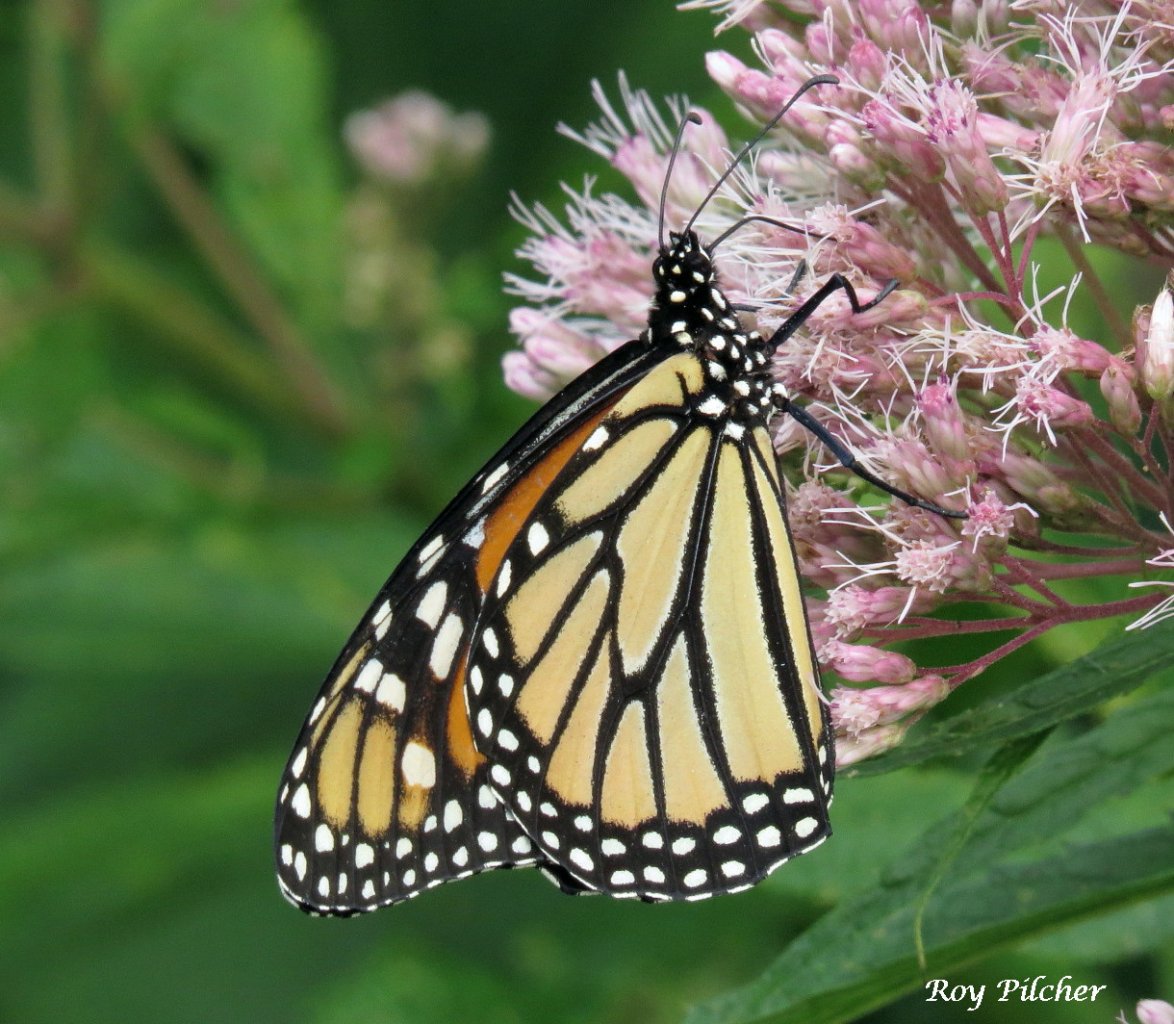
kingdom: Animalia
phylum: Arthropoda
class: Insecta
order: Lepidoptera
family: Nymphalidae
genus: Danaus
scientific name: Danaus plexippus
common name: Monarch
